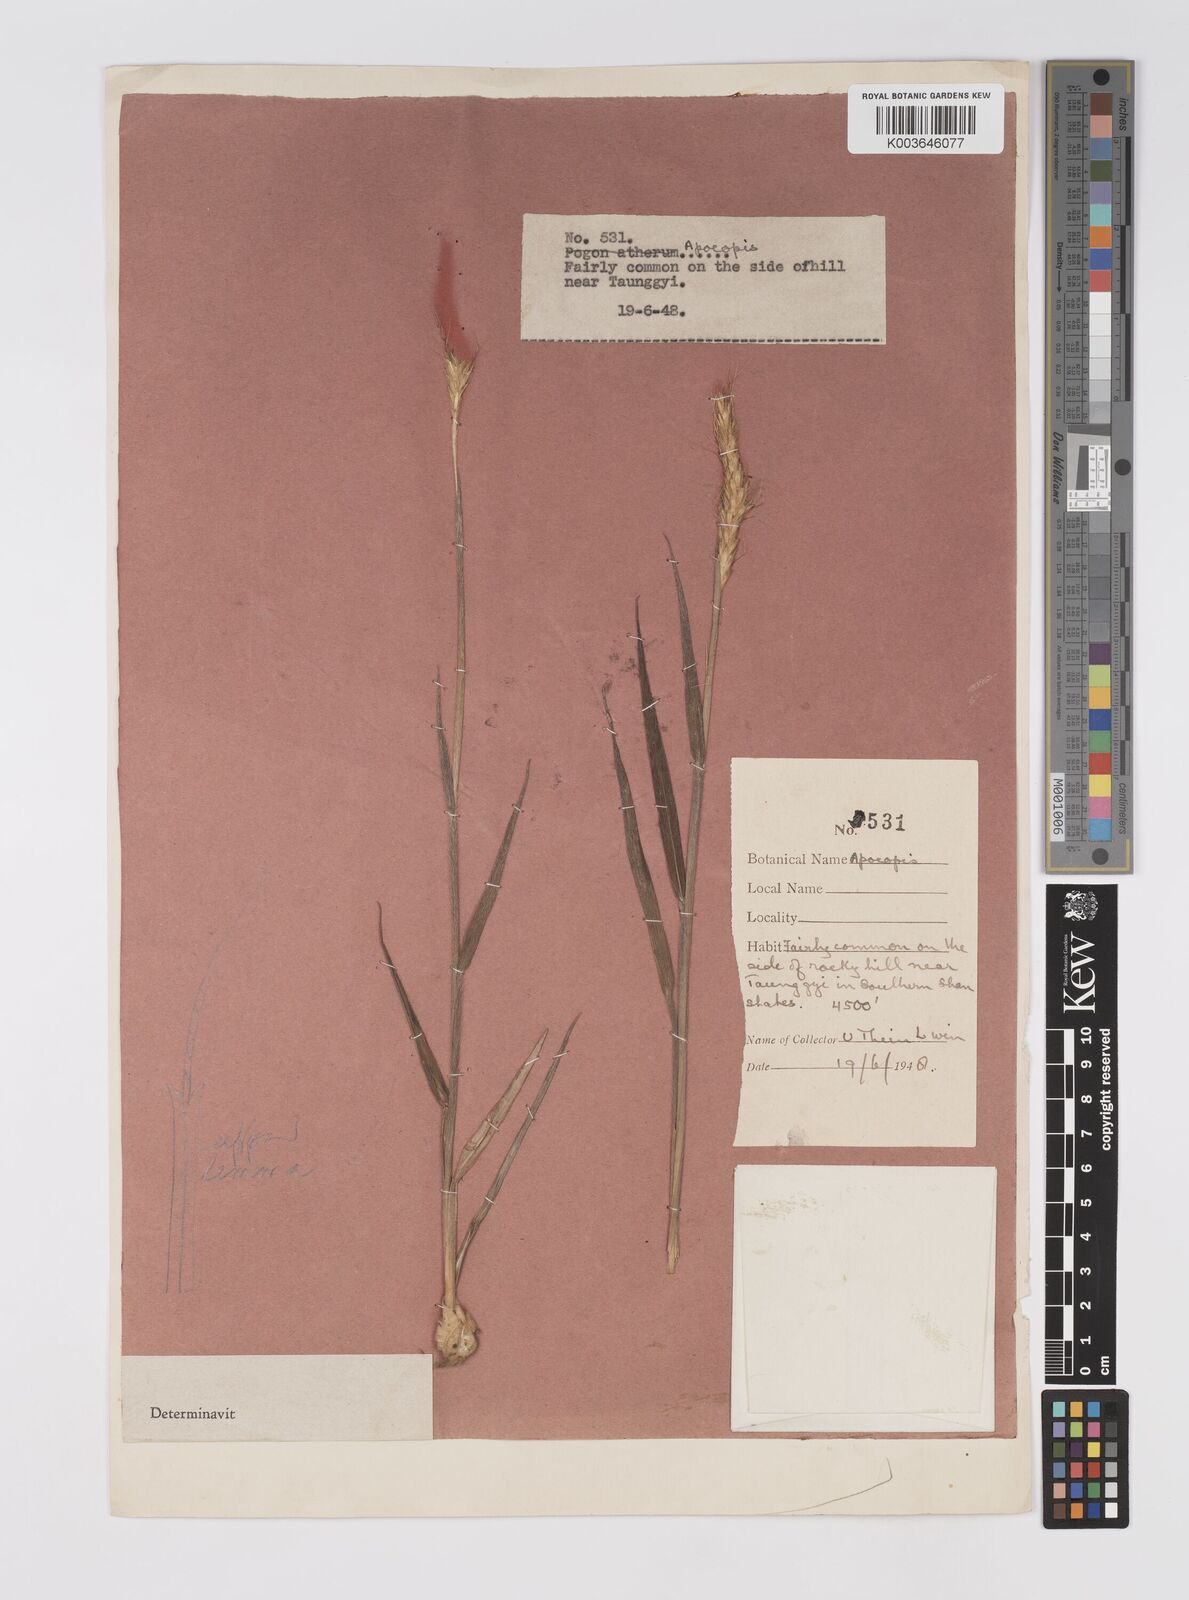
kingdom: Plantae
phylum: Tracheophyta
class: Liliopsida
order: Poales
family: Poaceae
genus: Apocopis
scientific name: Apocopis floccosus
